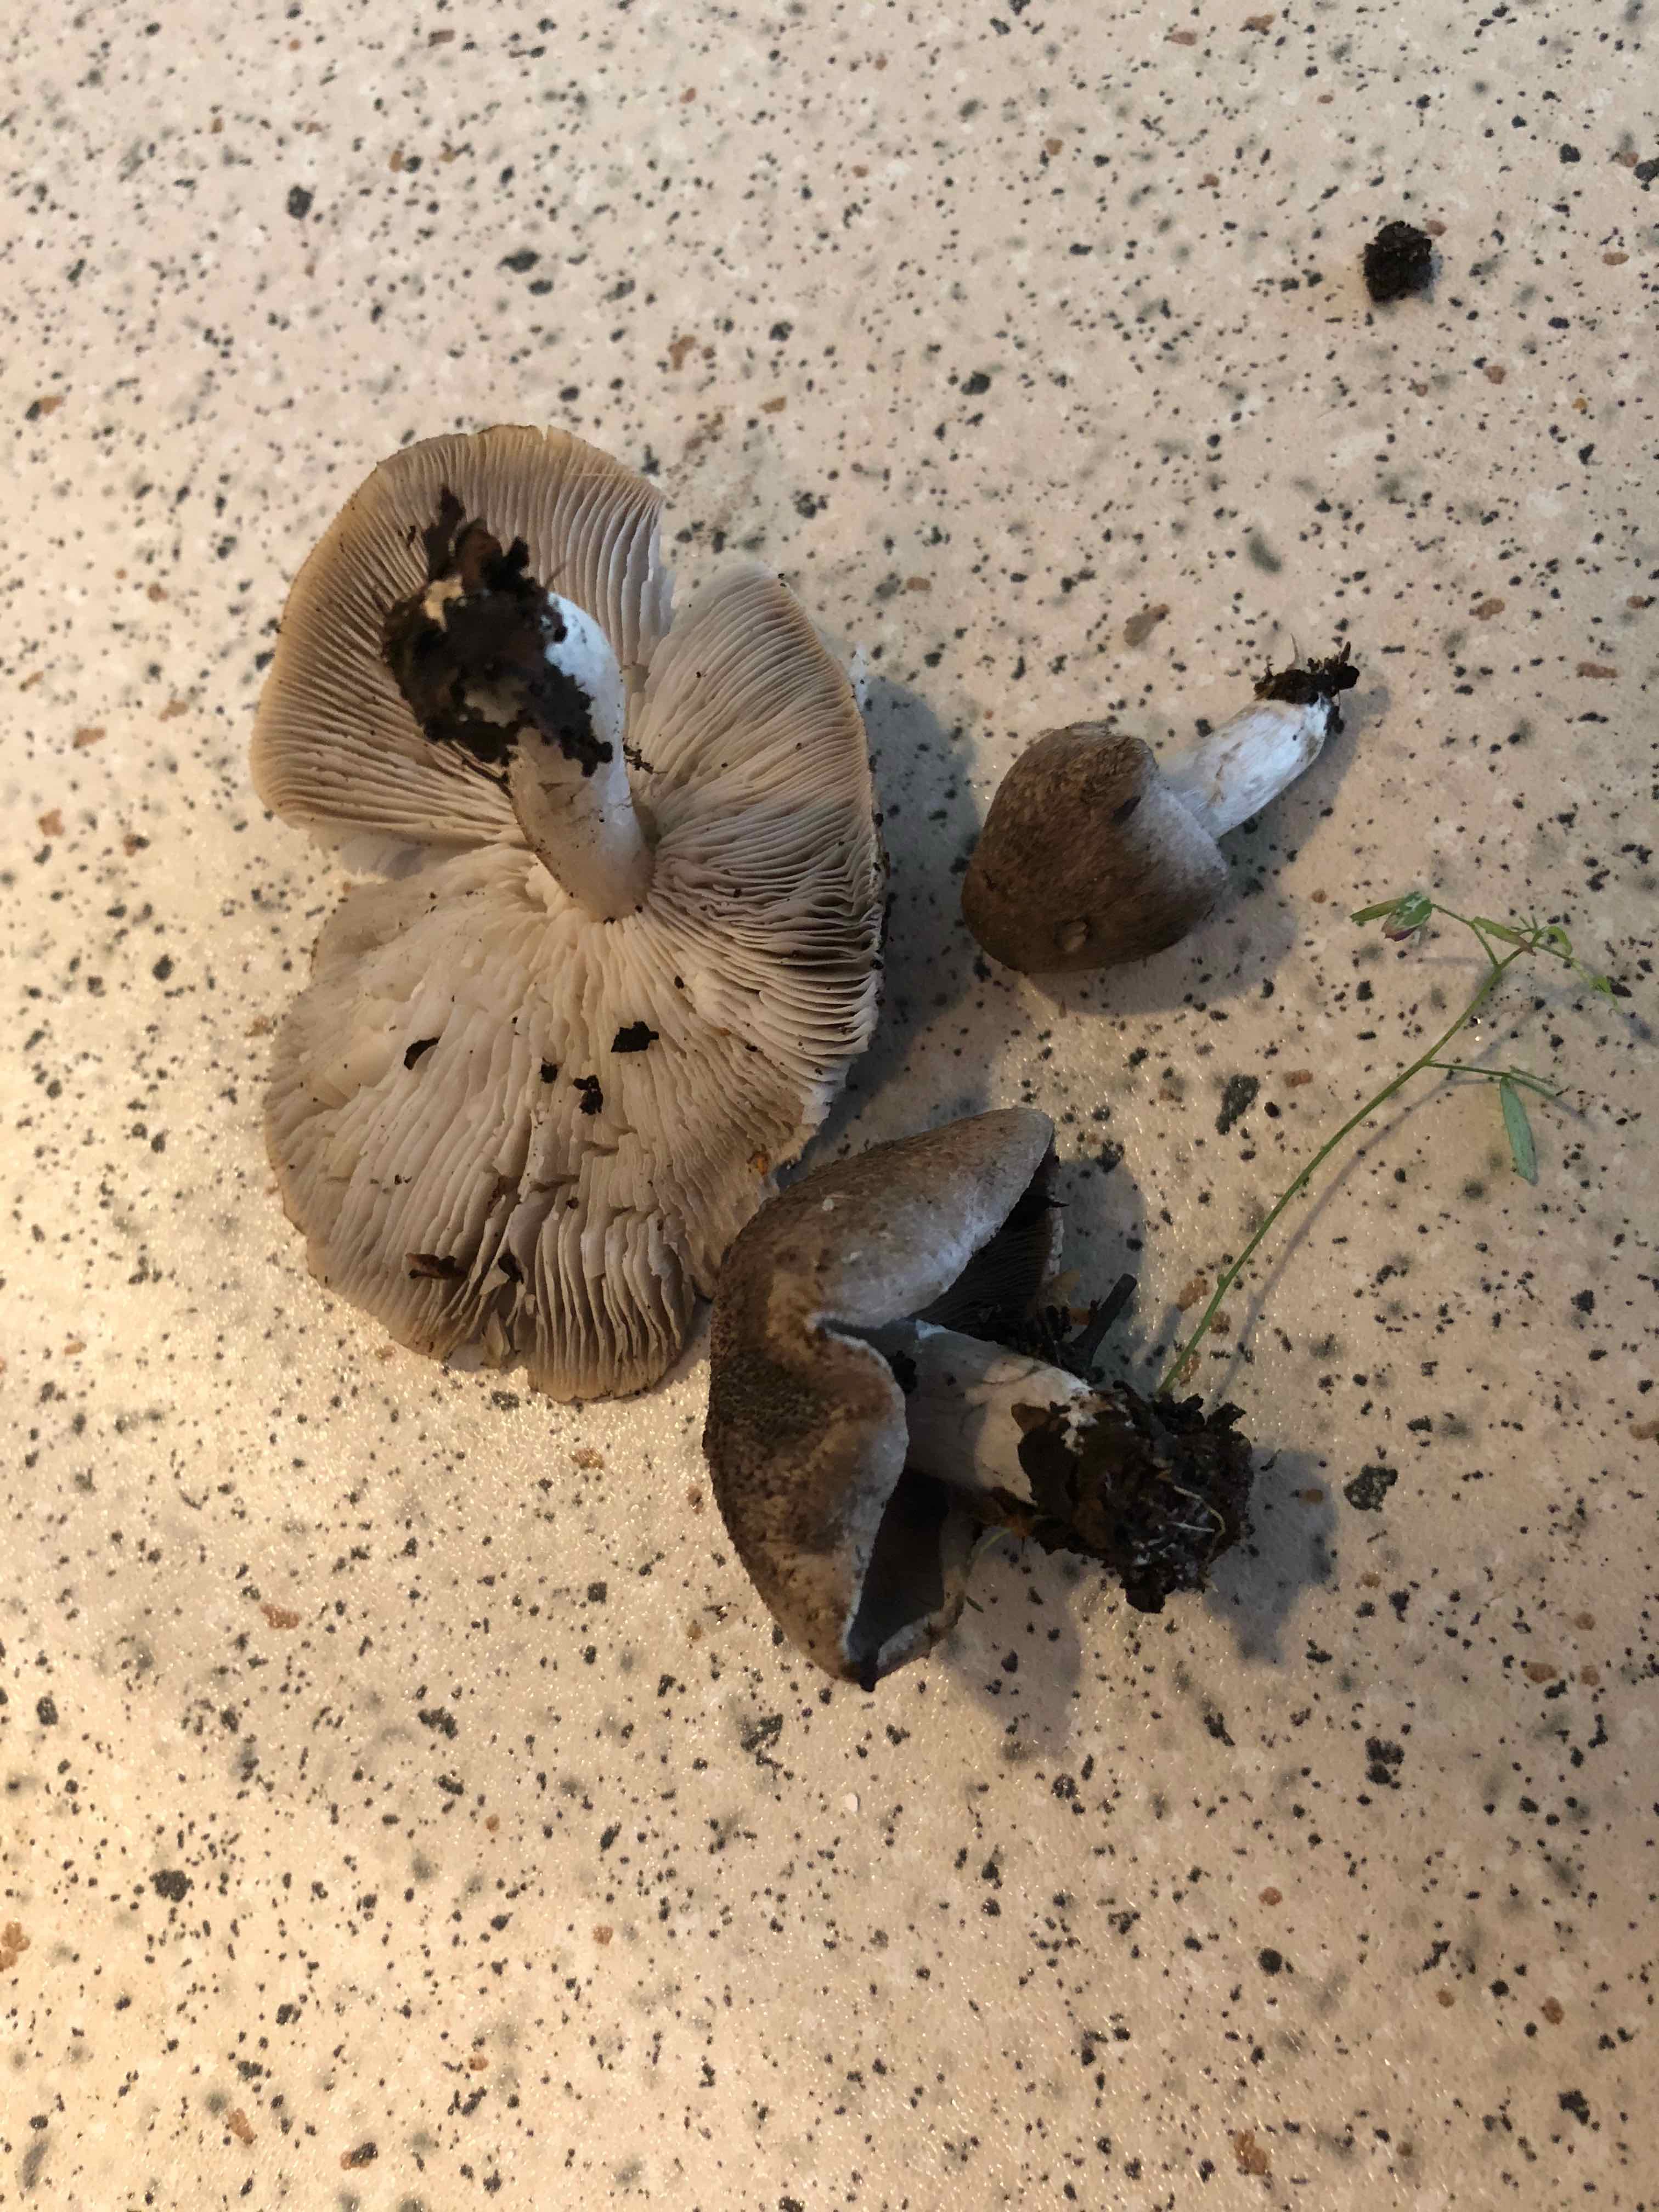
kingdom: Fungi
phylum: Basidiomycota
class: Agaricomycetes
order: Agaricales
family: Tricholomataceae
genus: Tricholoma
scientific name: Tricholoma
